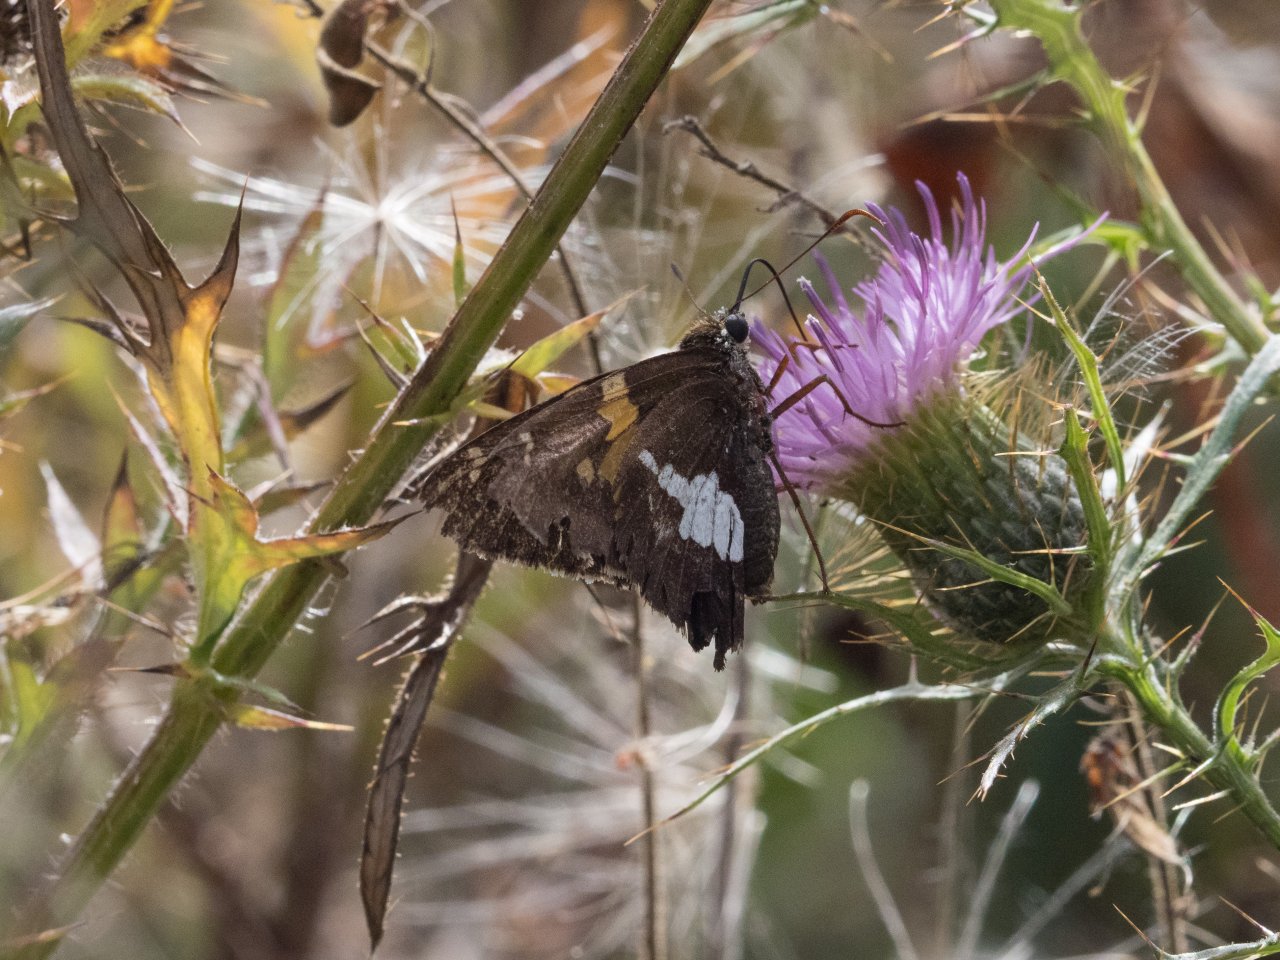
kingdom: Animalia
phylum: Arthropoda
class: Insecta
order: Lepidoptera
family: Hesperiidae
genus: Epargyreus
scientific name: Epargyreus clarus
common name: Silver-spotted Skipper
